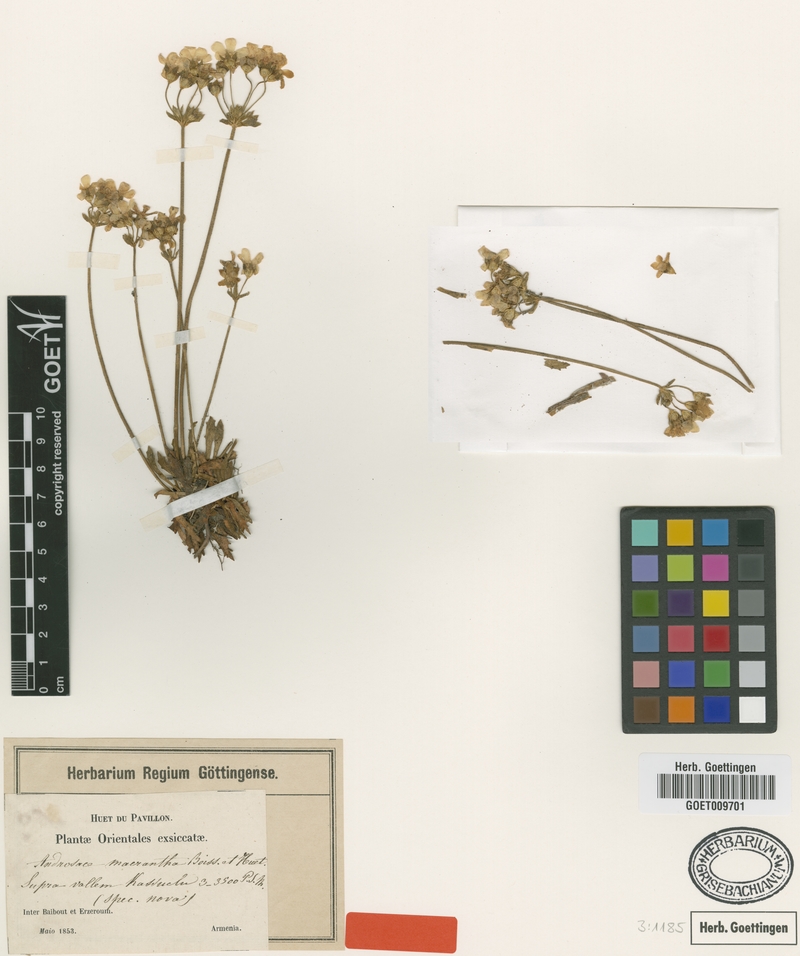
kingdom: Plantae
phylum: Tracheophyta
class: Magnoliopsida
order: Ericales
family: Primulaceae
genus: Androsace
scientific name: Androsace armeniaca
